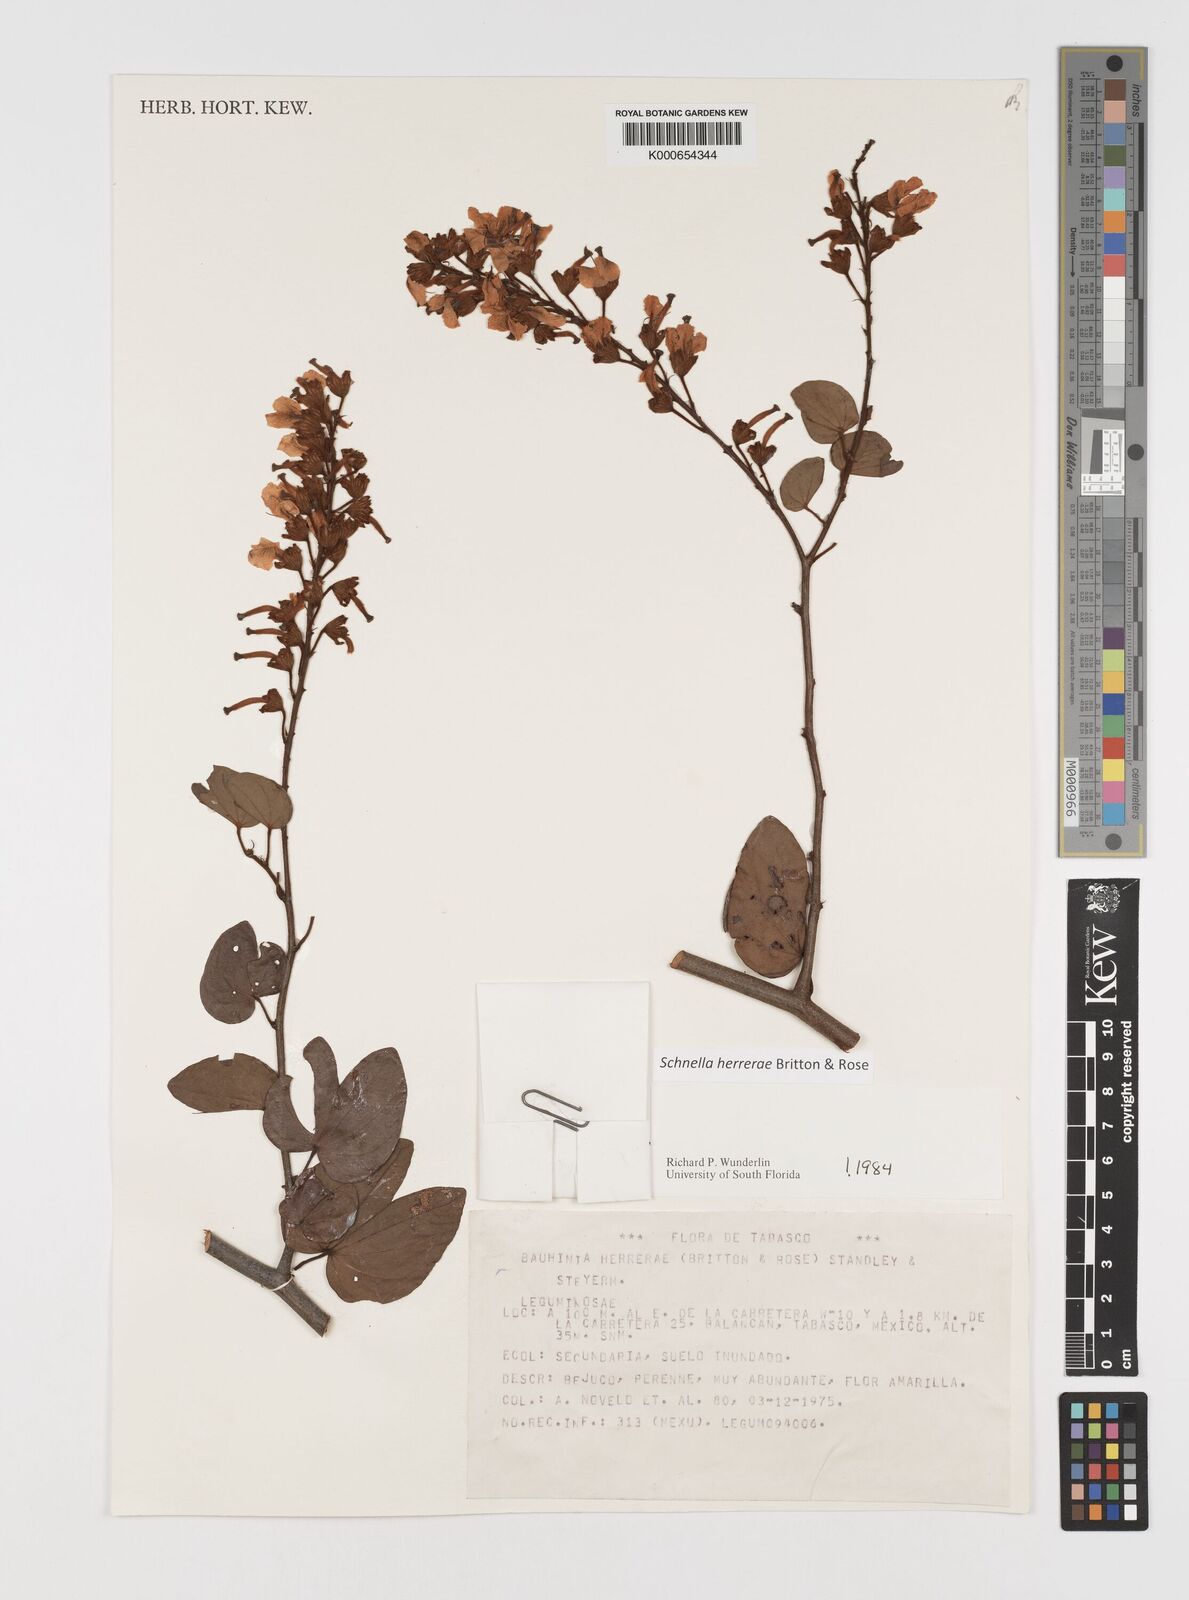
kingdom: Plantae
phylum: Tracheophyta
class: Magnoliopsida
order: Fabales
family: Fabaceae
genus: Schnella
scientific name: Schnella herrerae
